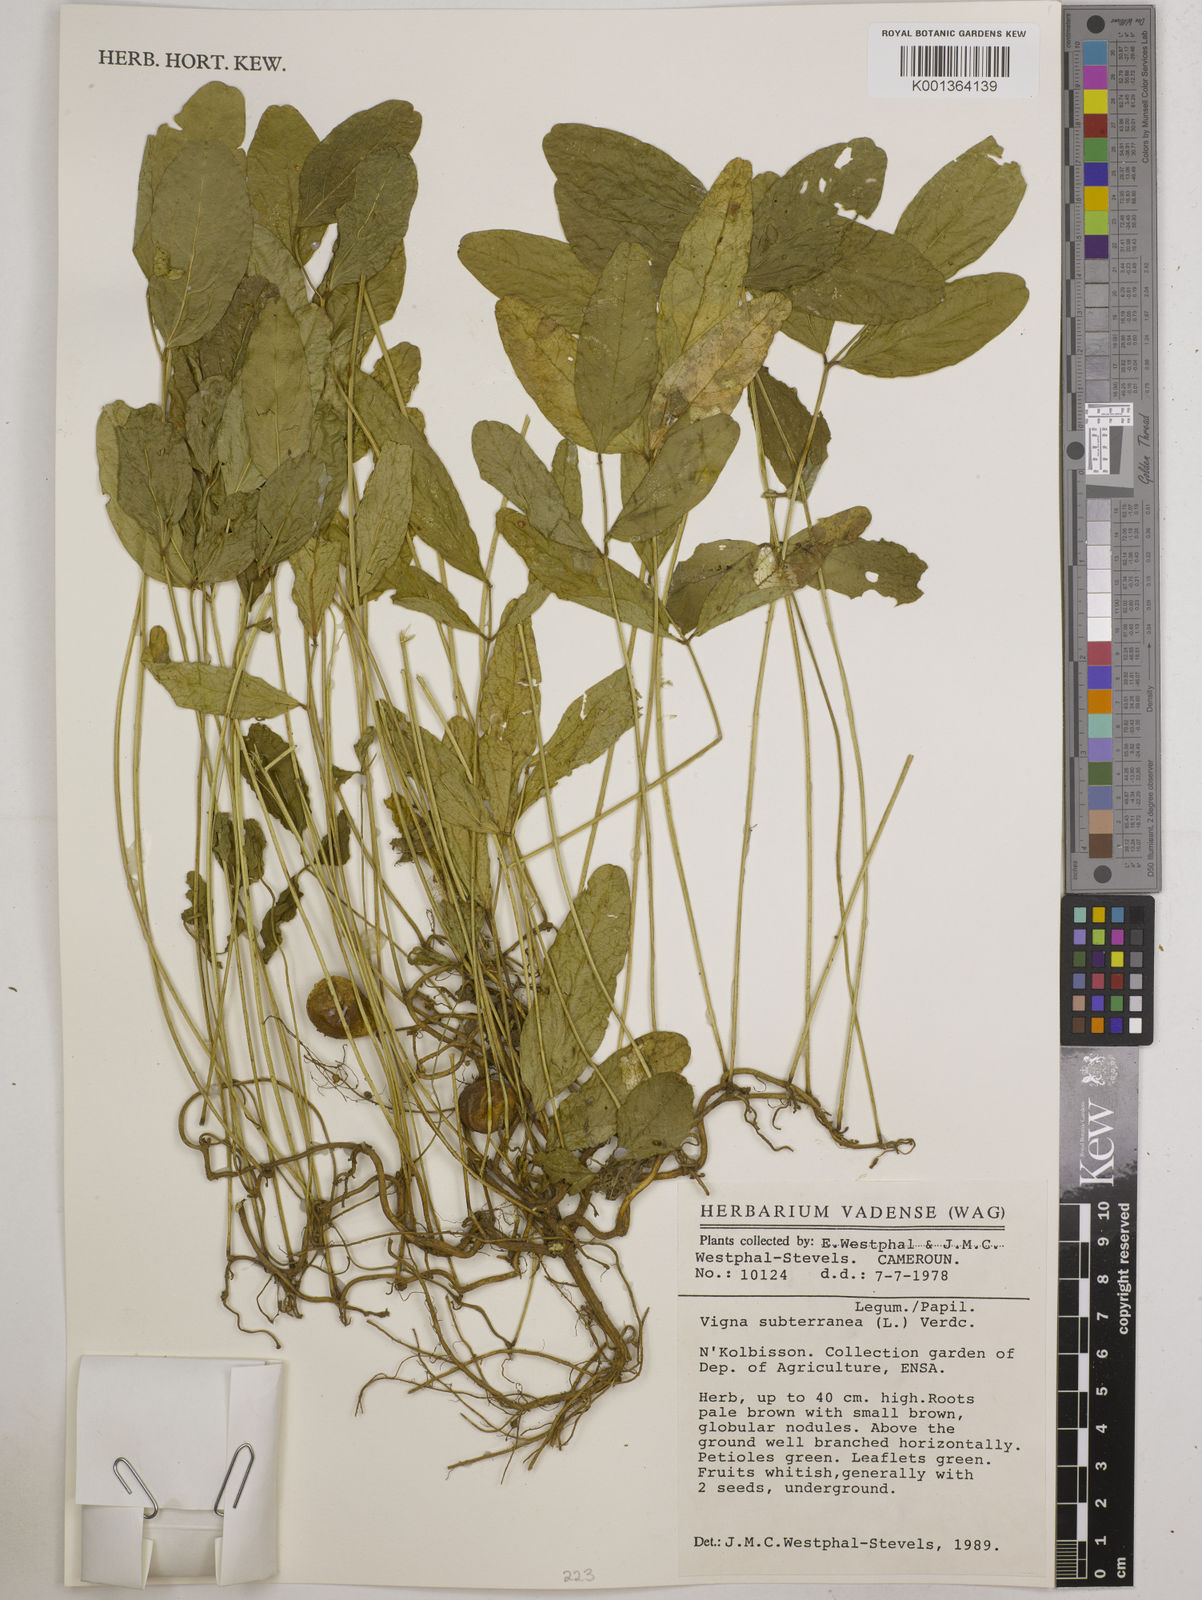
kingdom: Plantae
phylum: Tracheophyta
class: Magnoliopsida
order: Fabales
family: Fabaceae
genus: Vigna
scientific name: Vigna subterranea
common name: Bambara groundnut
